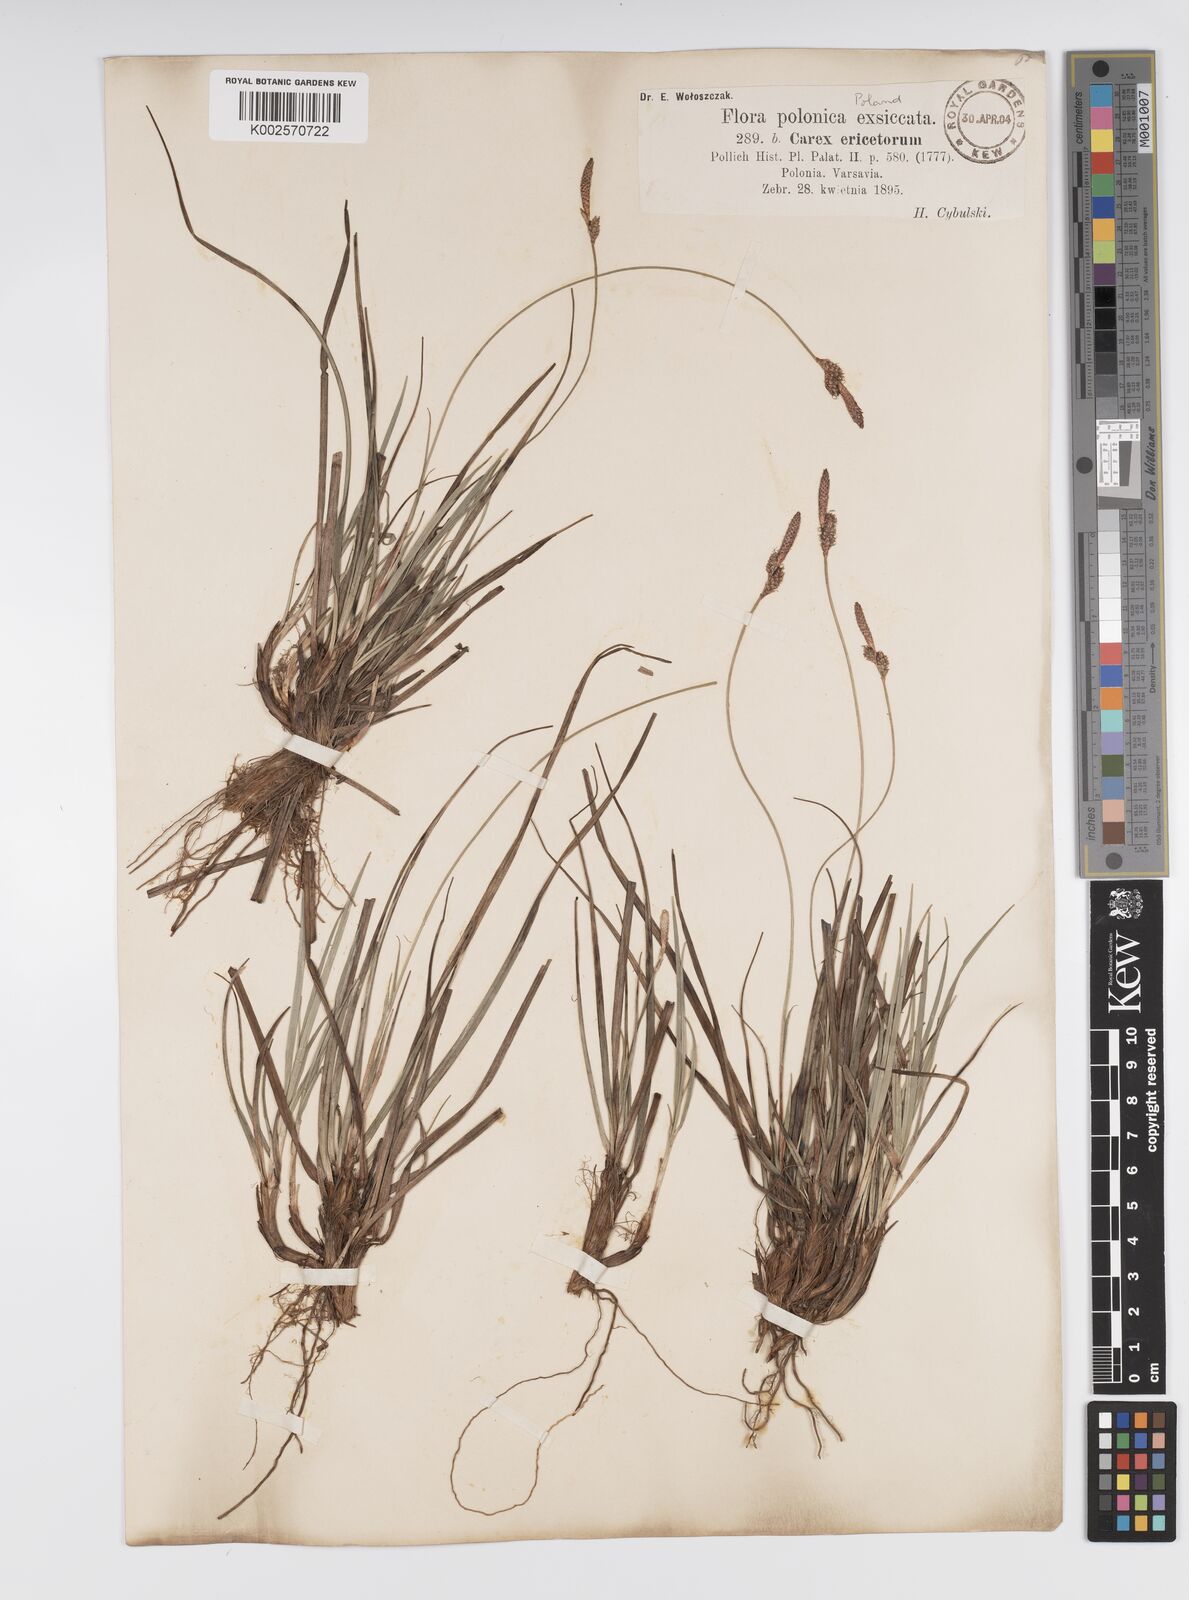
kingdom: Plantae
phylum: Tracheophyta
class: Liliopsida
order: Poales
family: Cyperaceae
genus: Carex
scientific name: Carex ericetorum
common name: Rare spring-sedge
